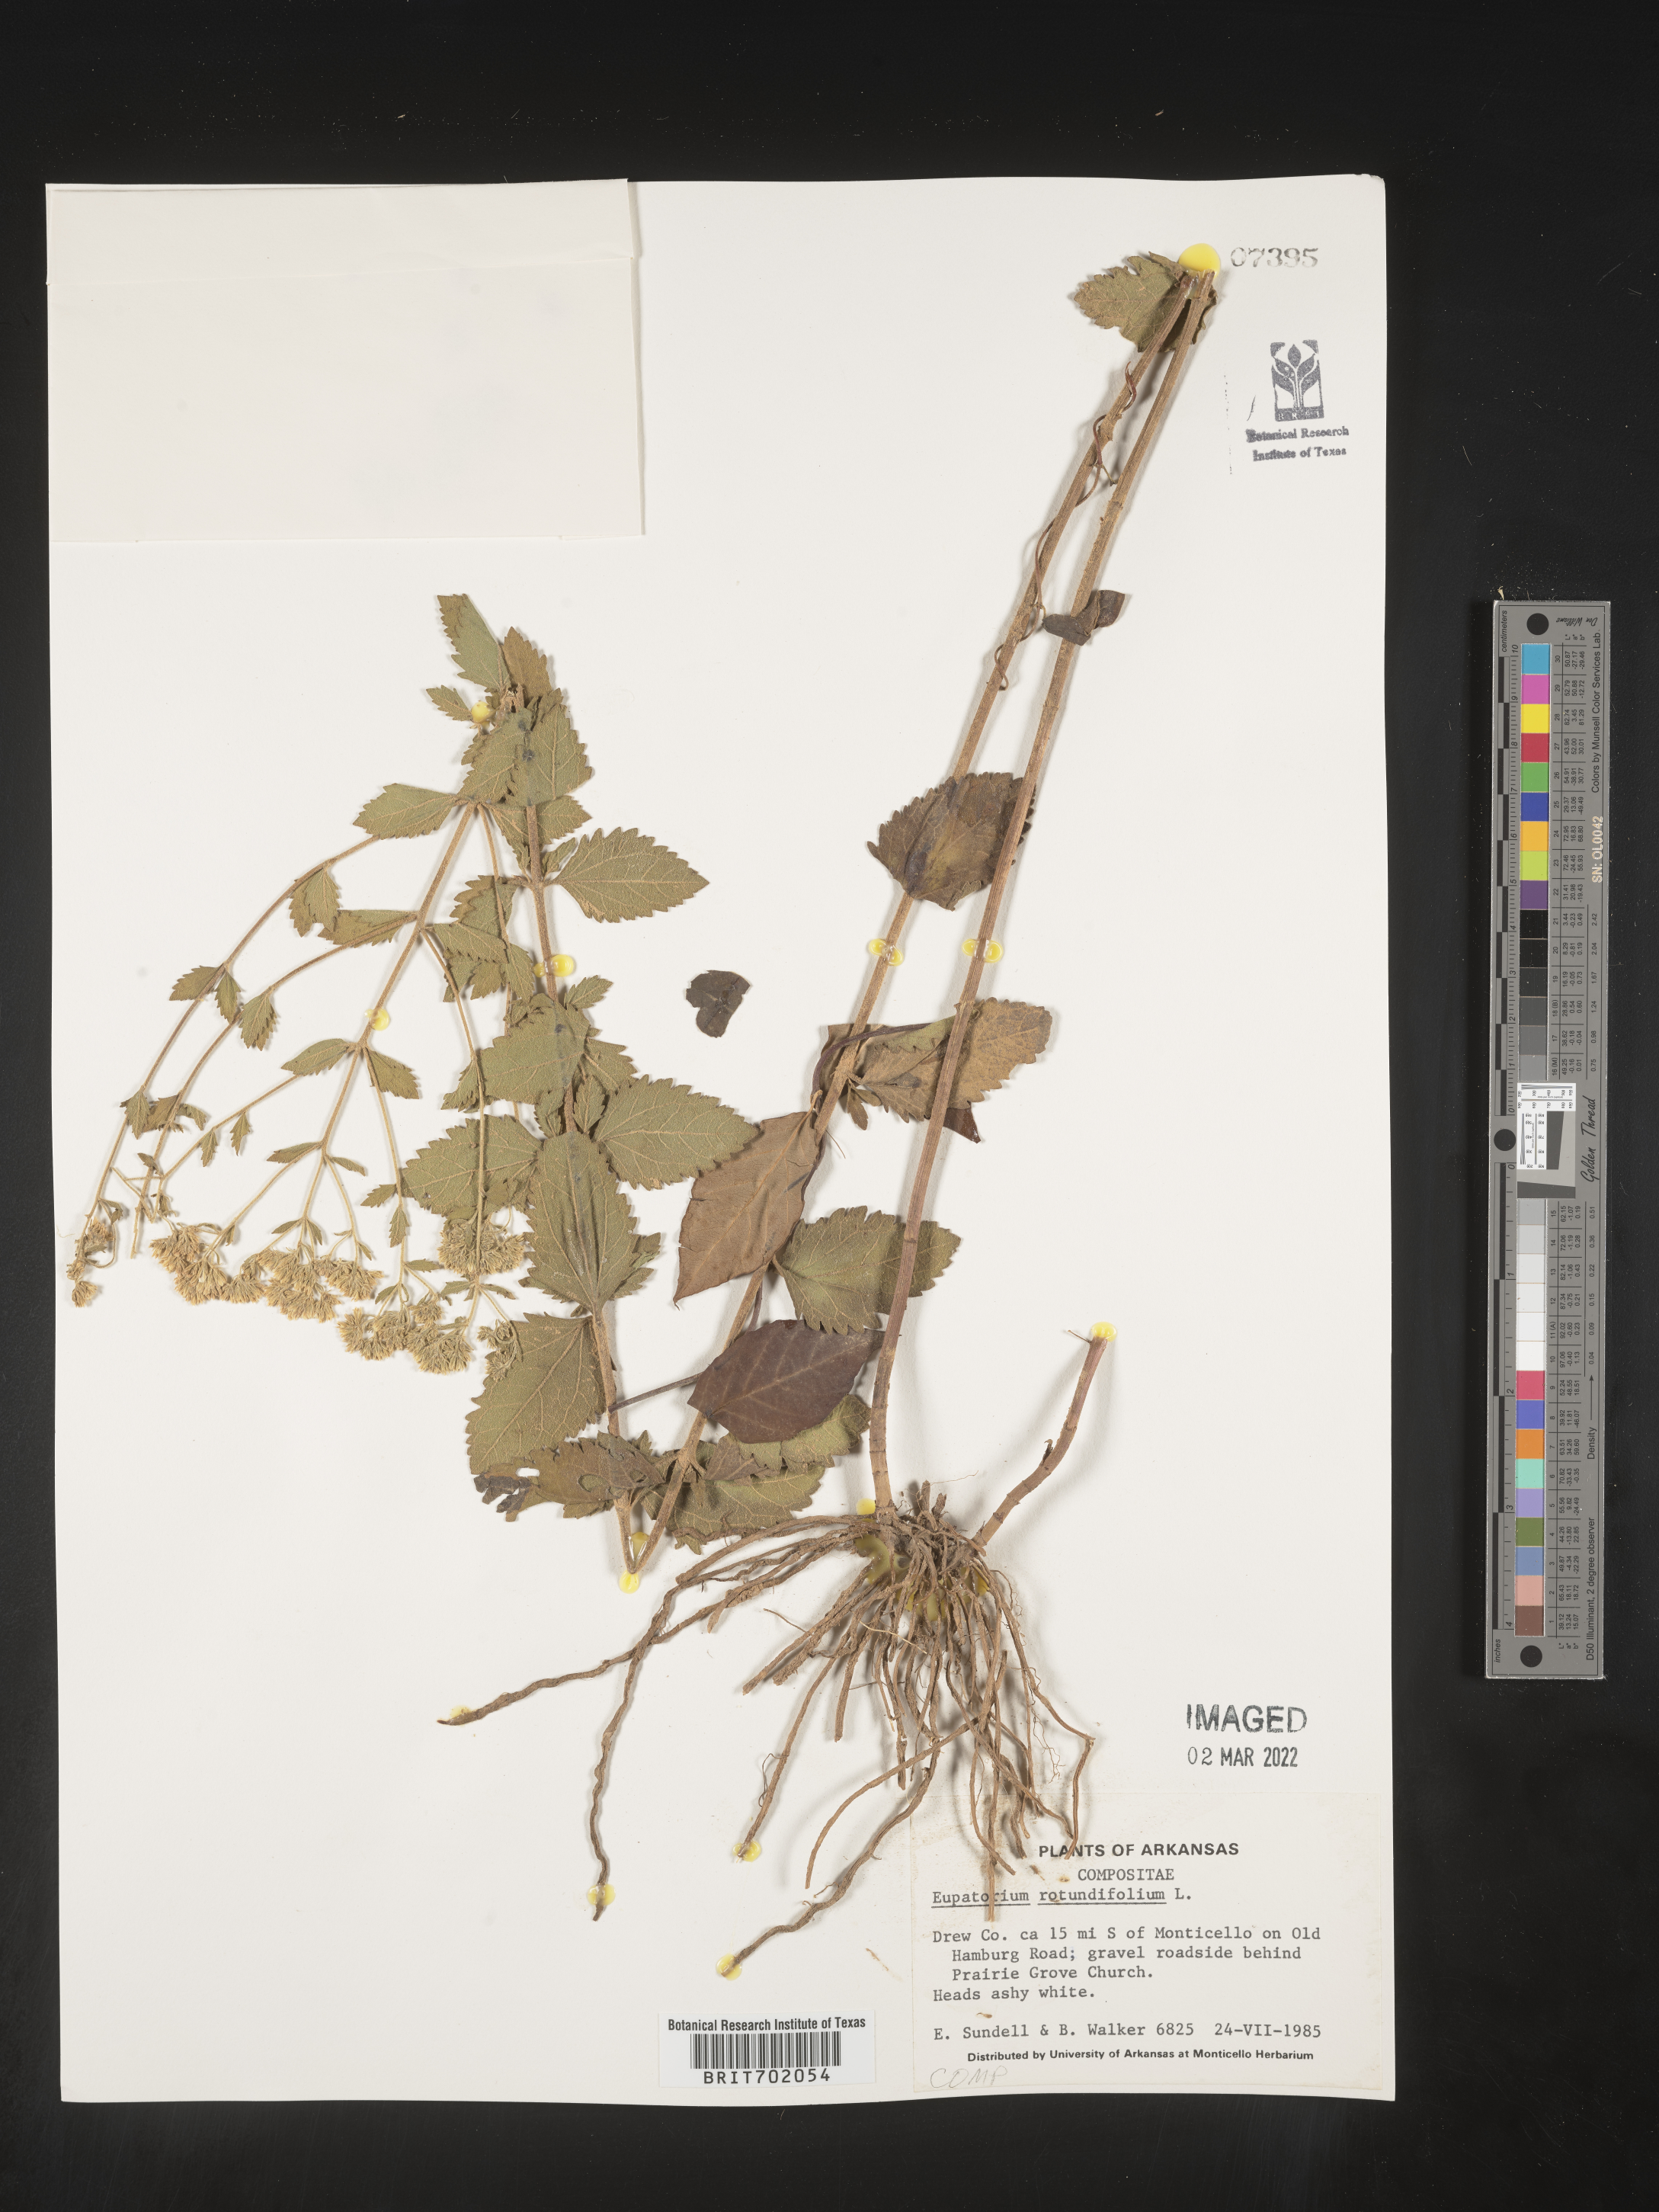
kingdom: Plantae
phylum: Tracheophyta
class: Magnoliopsida
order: Asterales
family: Asteraceae
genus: Eupatorium
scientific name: Eupatorium rotundifolium
